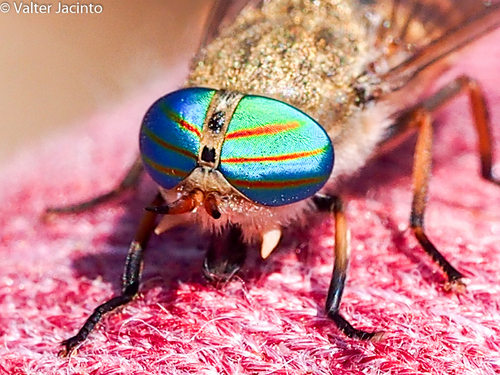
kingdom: Animalia
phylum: Arthropoda
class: Insecta
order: Diptera
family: Tabanidae
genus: Tabanus
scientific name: Tabanus lunatus
